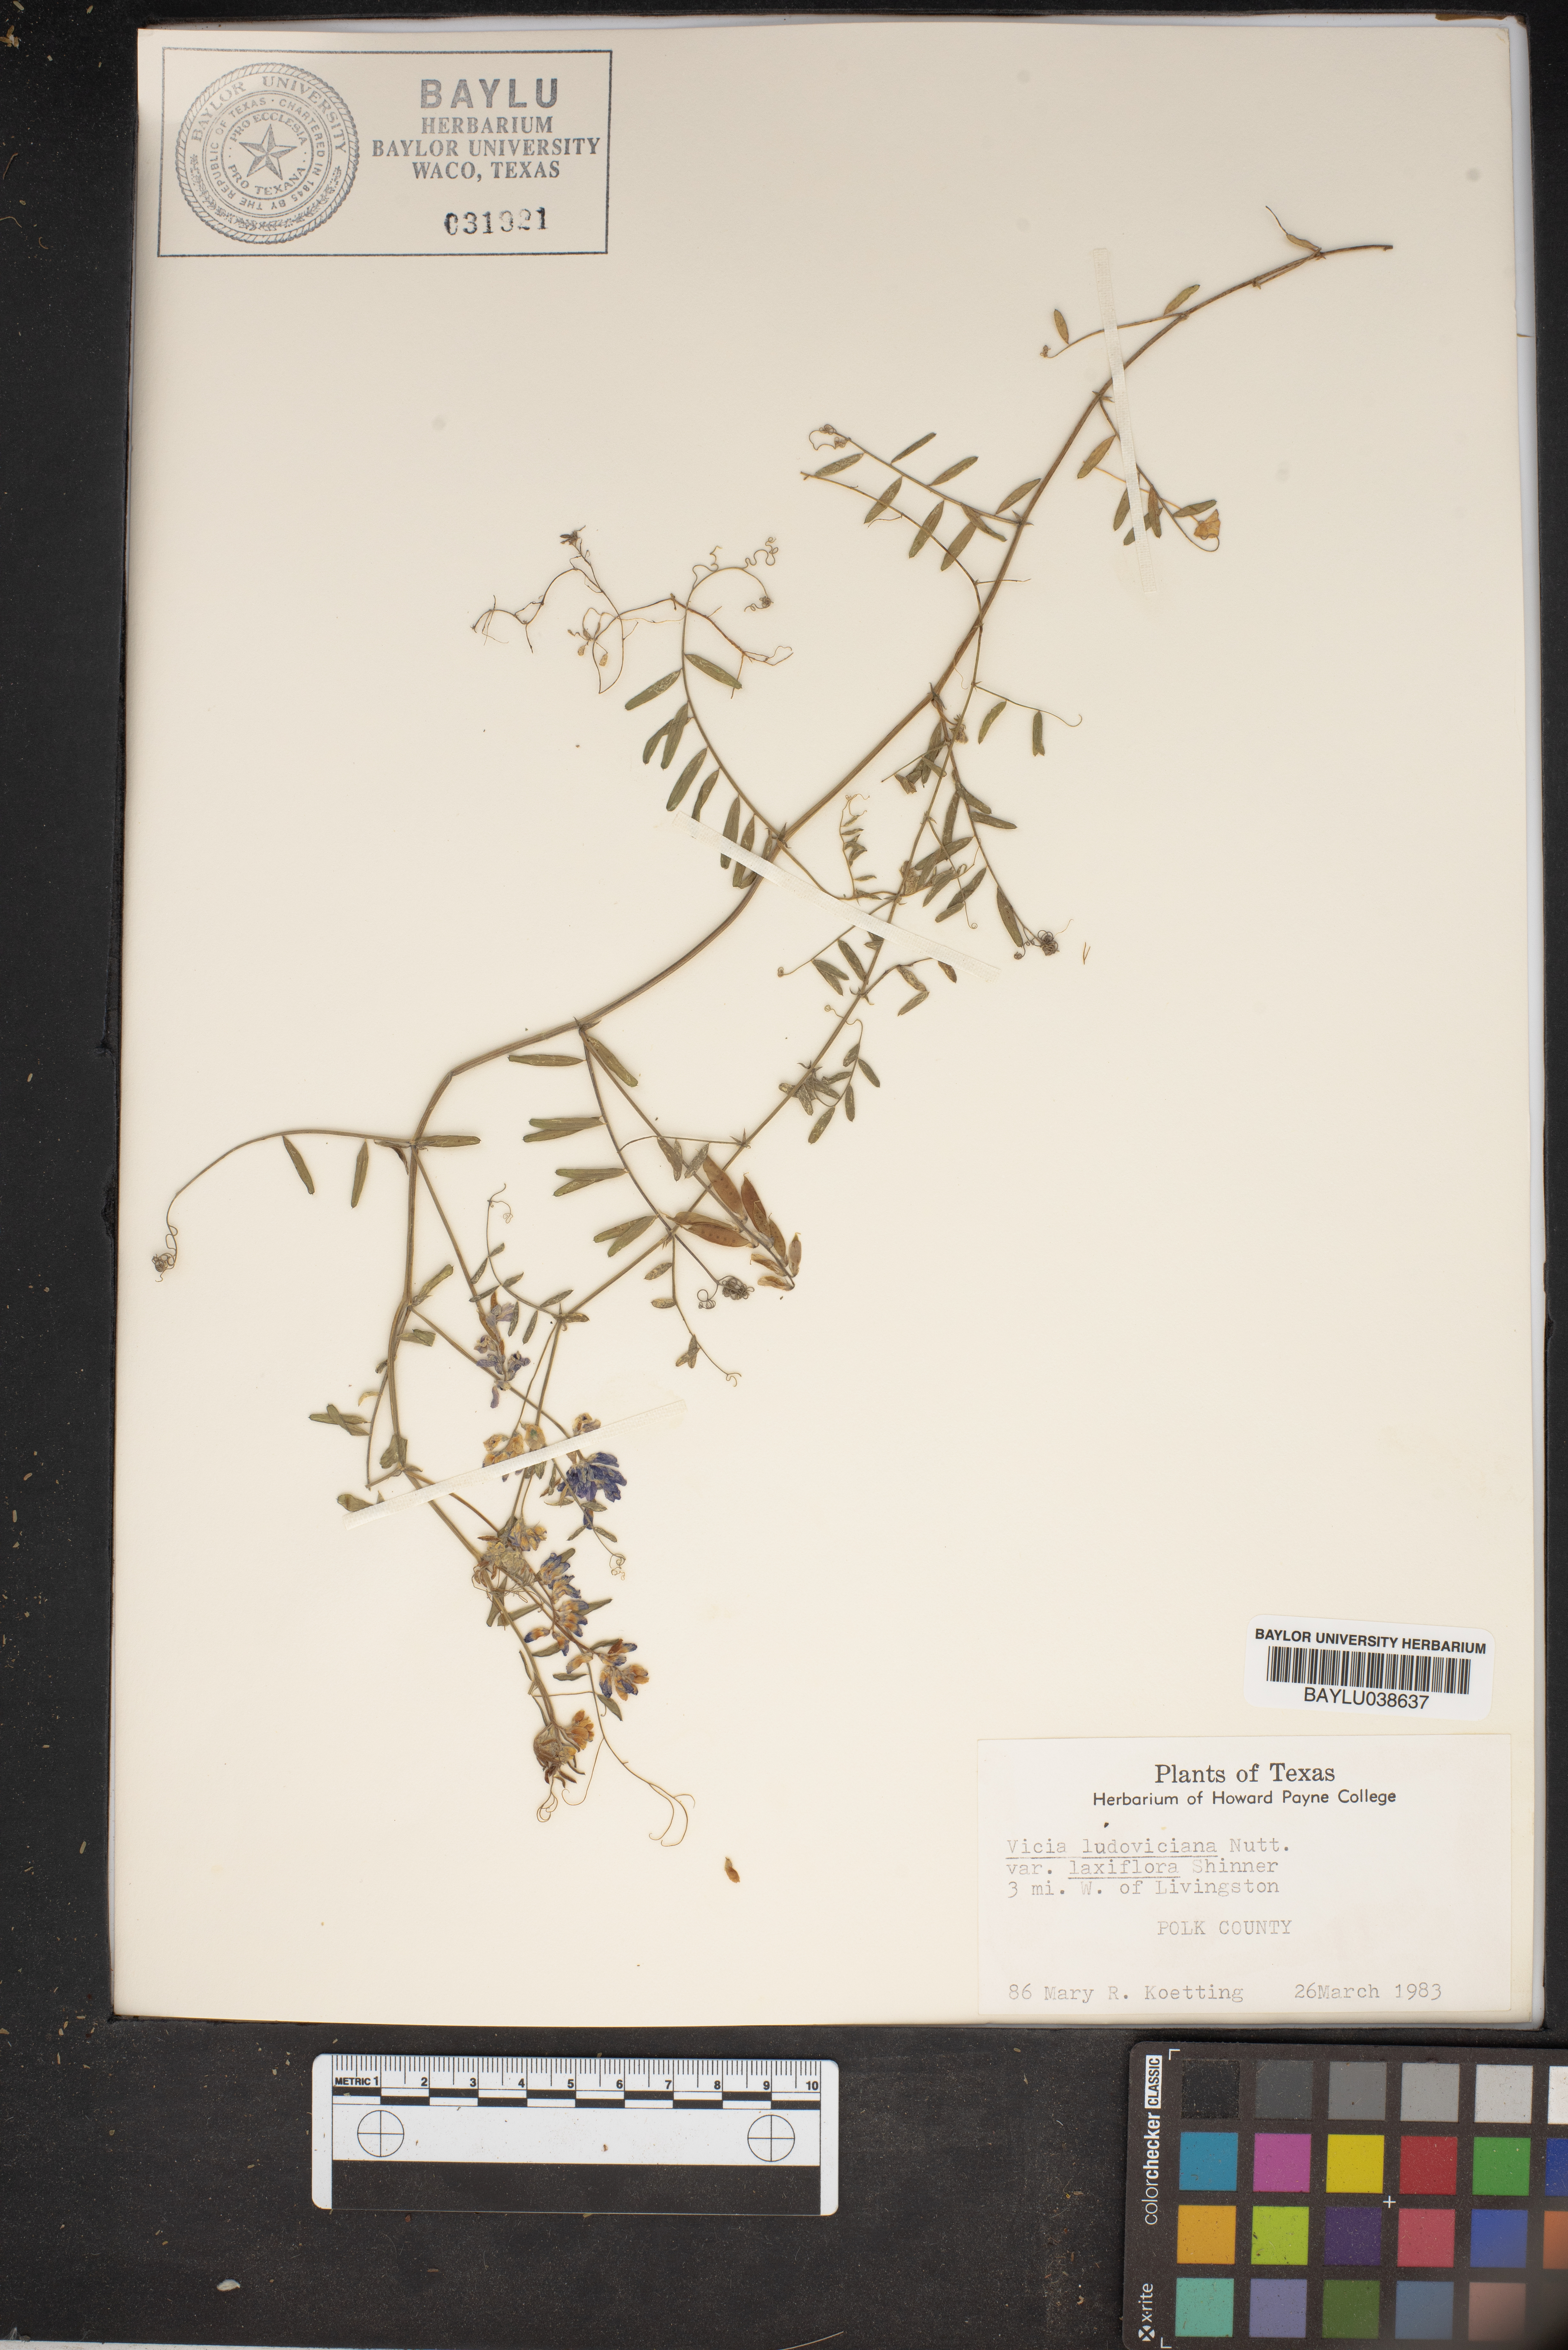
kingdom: Plantae
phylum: Tracheophyta
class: Magnoliopsida
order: Fabales
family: Fabaceae
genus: Vicia
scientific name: Vicia ludoviciana
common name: Louisiana vetch
